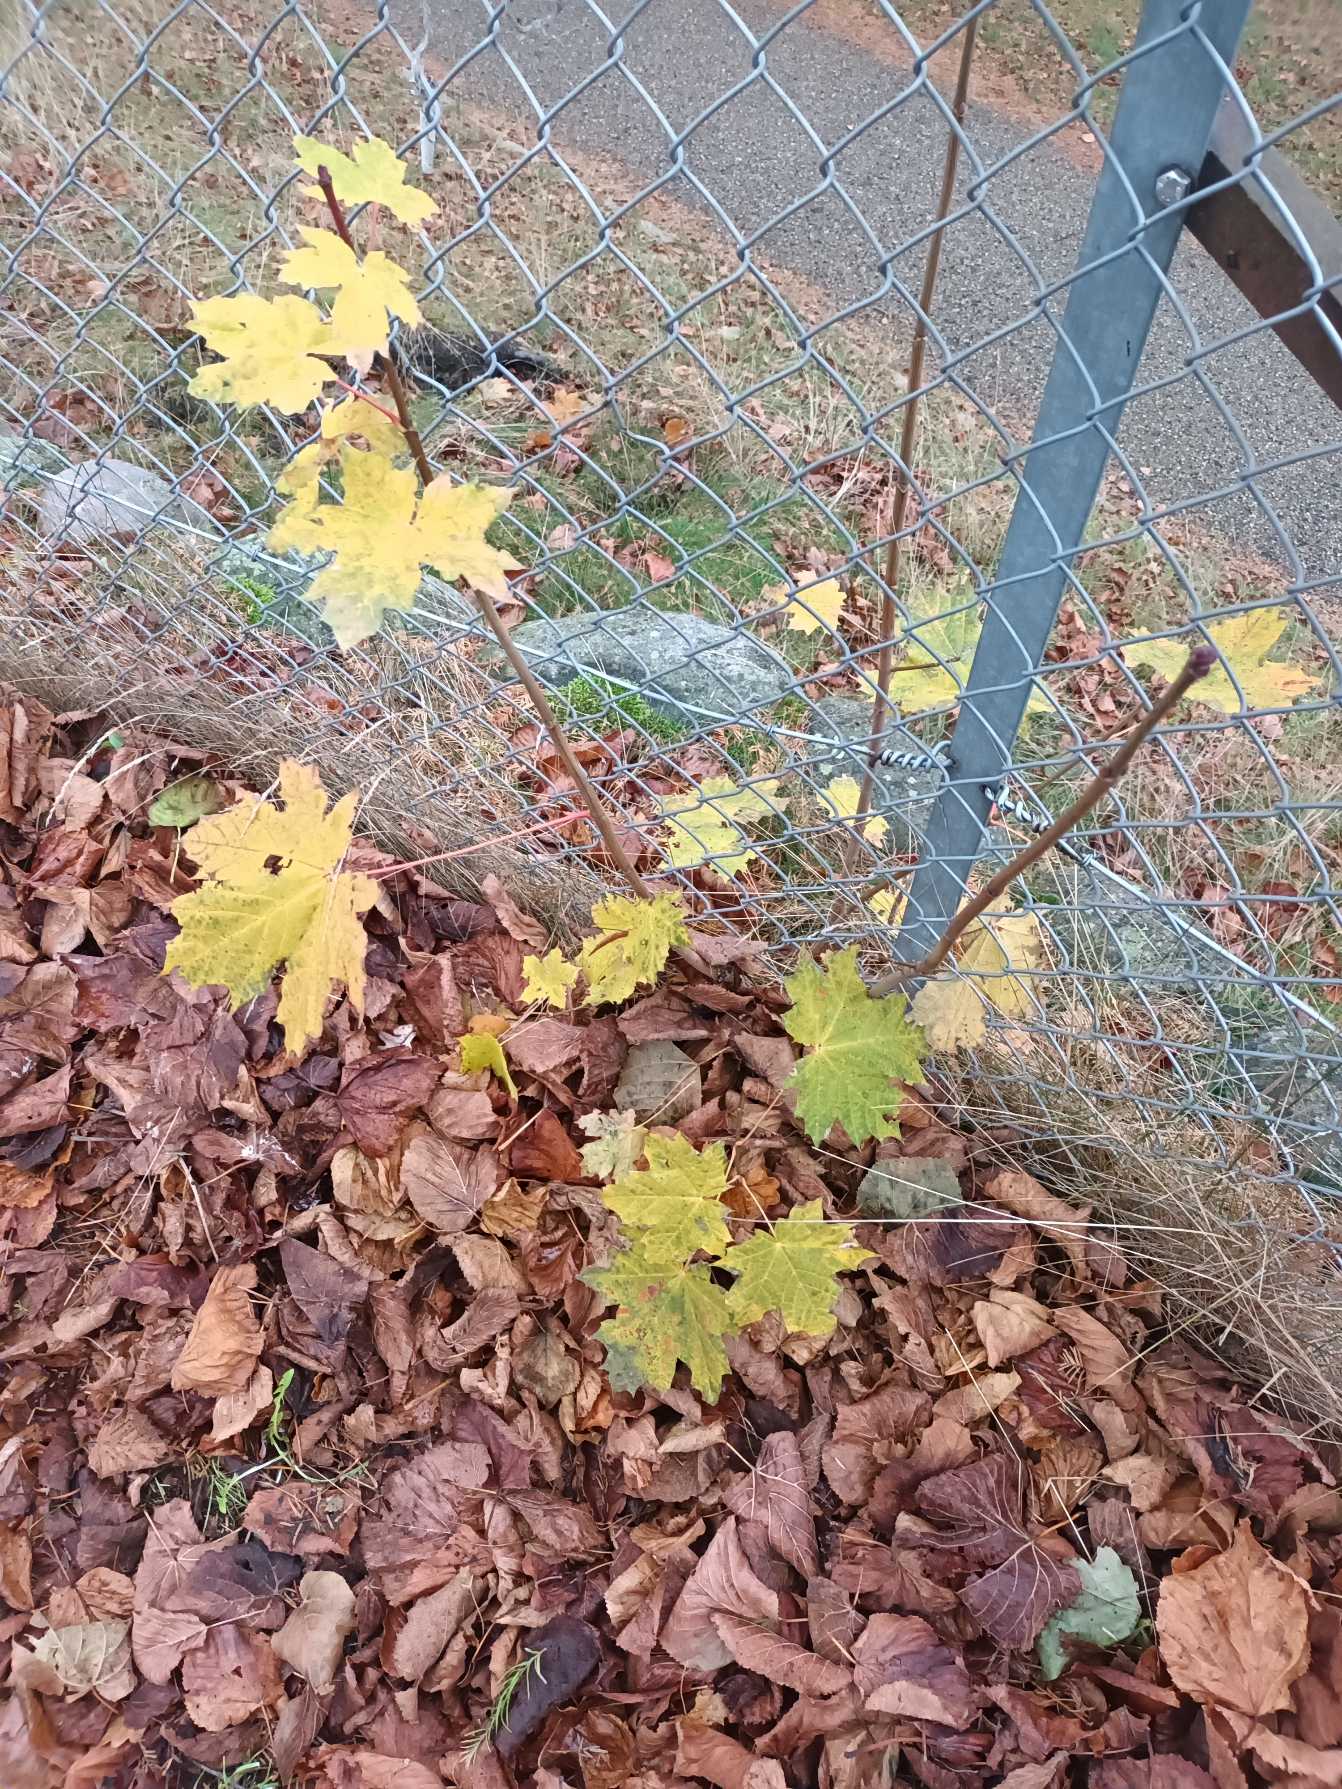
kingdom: Plantae
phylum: Tracheophyta
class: Magnoliopsida
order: Sapindales
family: Sapindaceae
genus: Acer
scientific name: Acer platanoides
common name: Spids-løn
